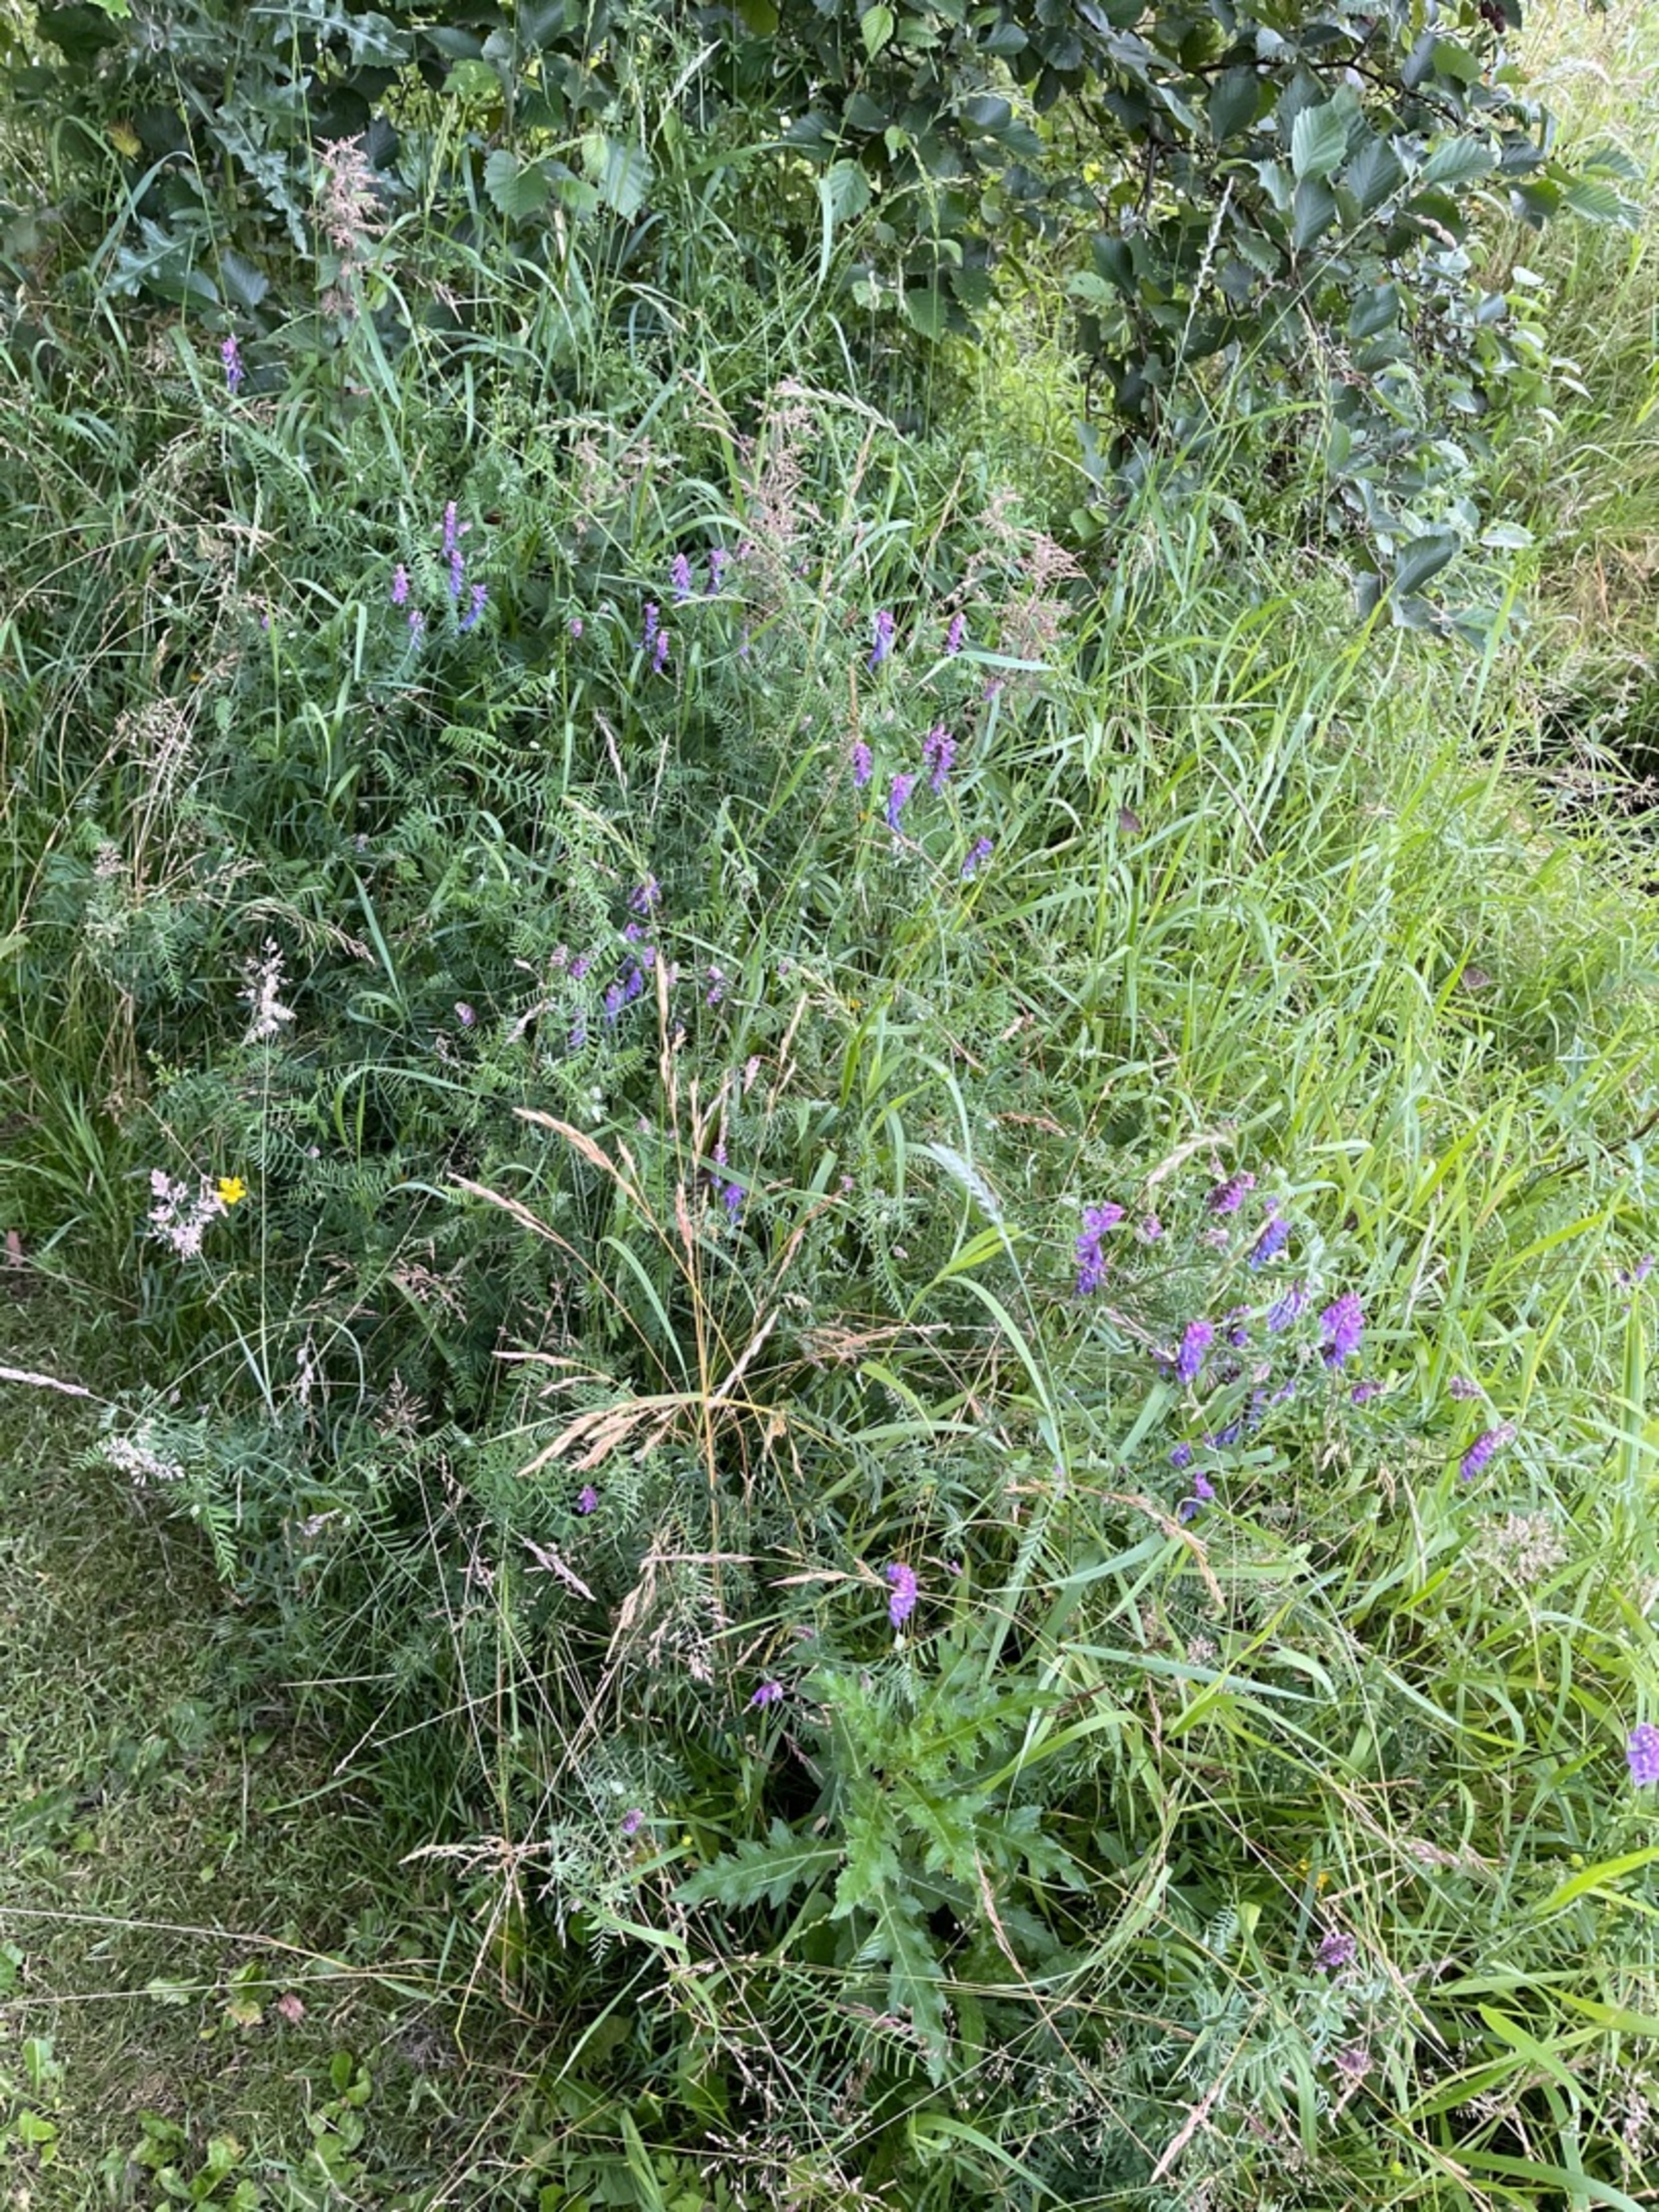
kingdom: Plantae
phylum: Tracheophyta
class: Magnoliopsida
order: Fabales
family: Fabaceae
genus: Vicia
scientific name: Vicia cracca
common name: Muse-vikke
